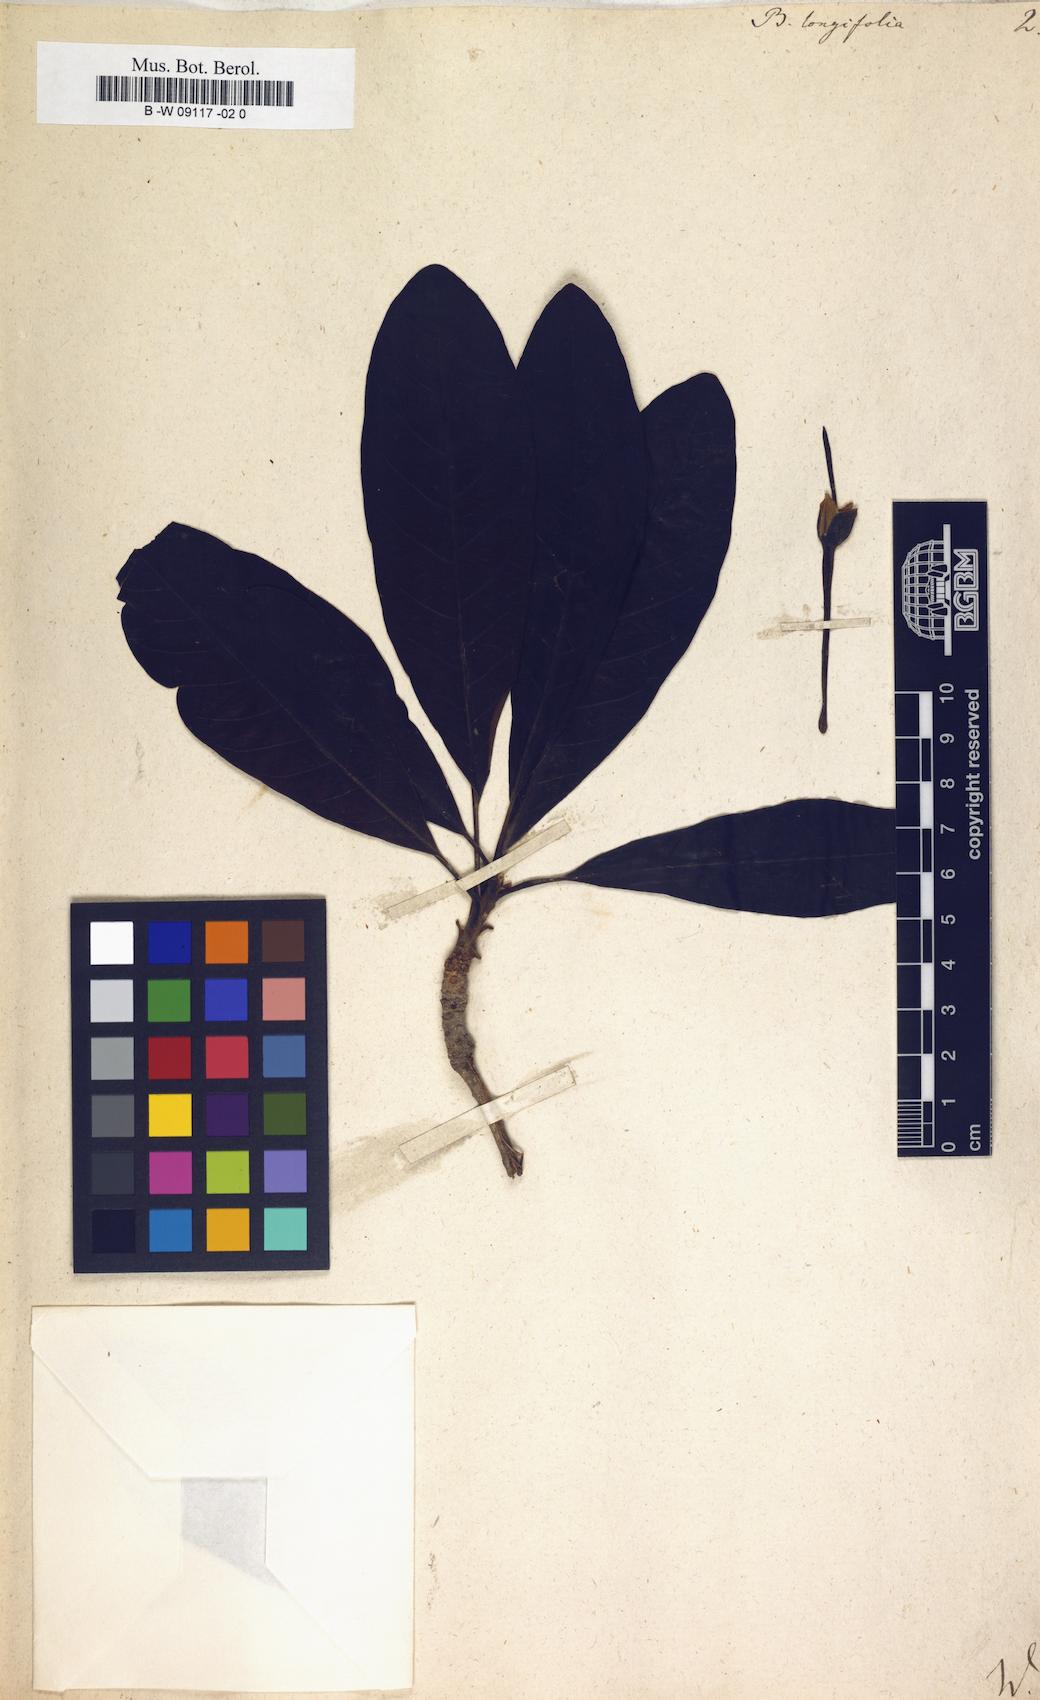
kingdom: Plantae
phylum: Tracheophyta
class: Magnoliopsida
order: Caryophyllales
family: Amaranthaceae
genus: Sclerolaena
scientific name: Sclerolaena fimbriolata
